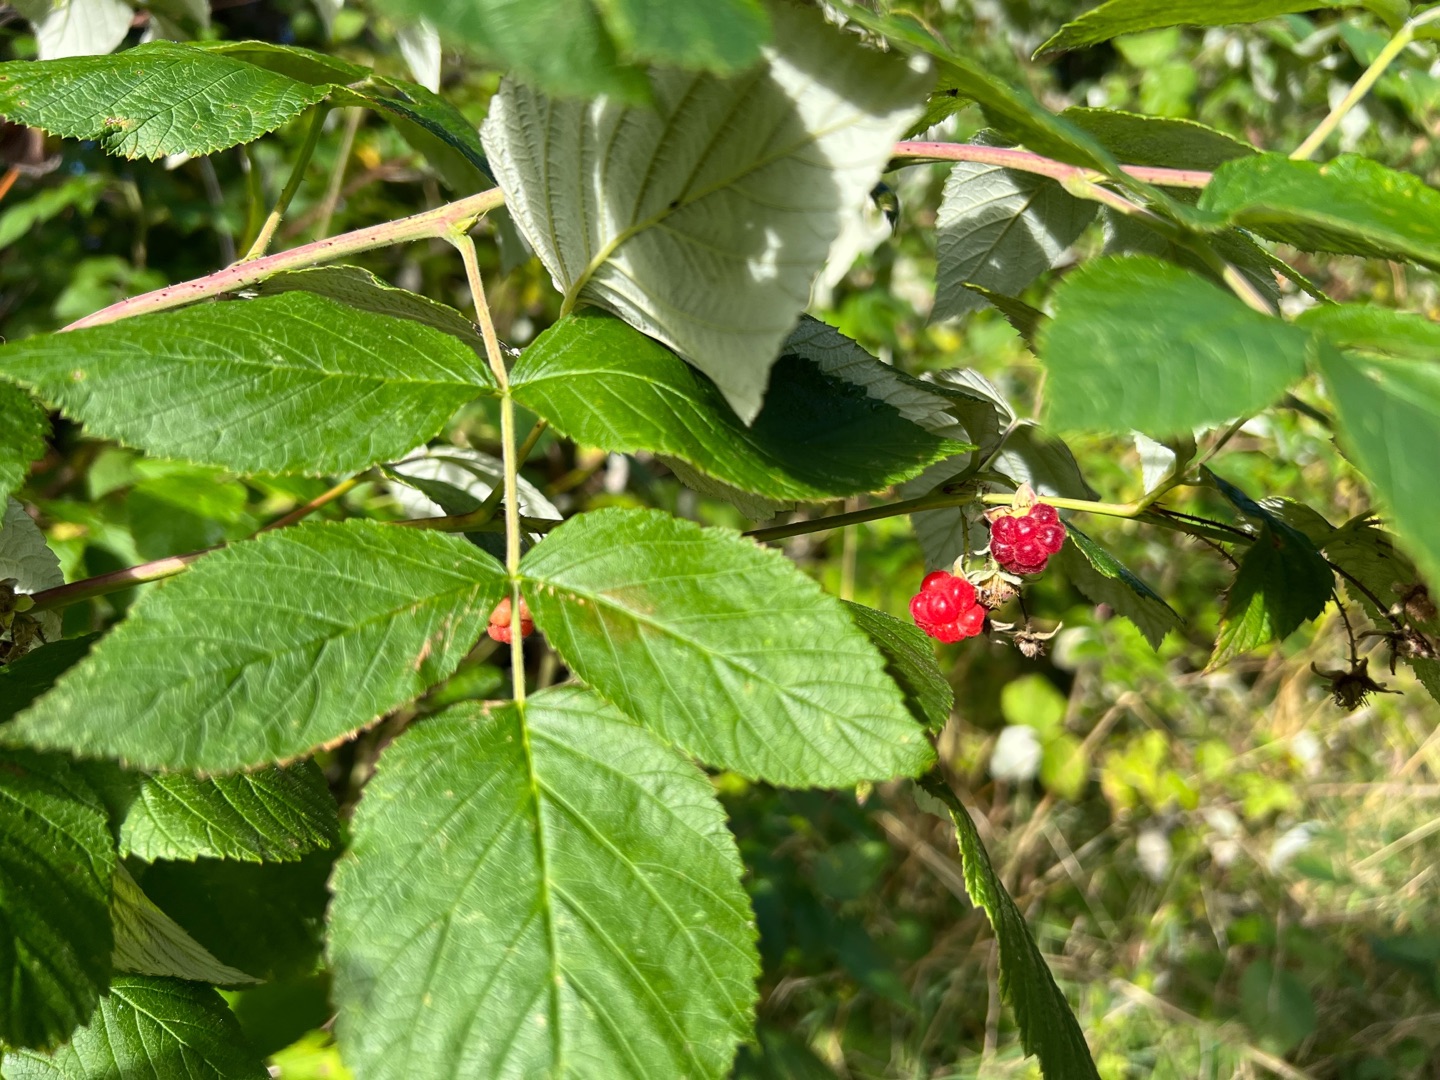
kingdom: Plantae
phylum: Tracheophyta
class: Magnoliopsida
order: Rosales
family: Rosaceae
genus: Rubus
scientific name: Rubus idaeus
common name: Hindbær
